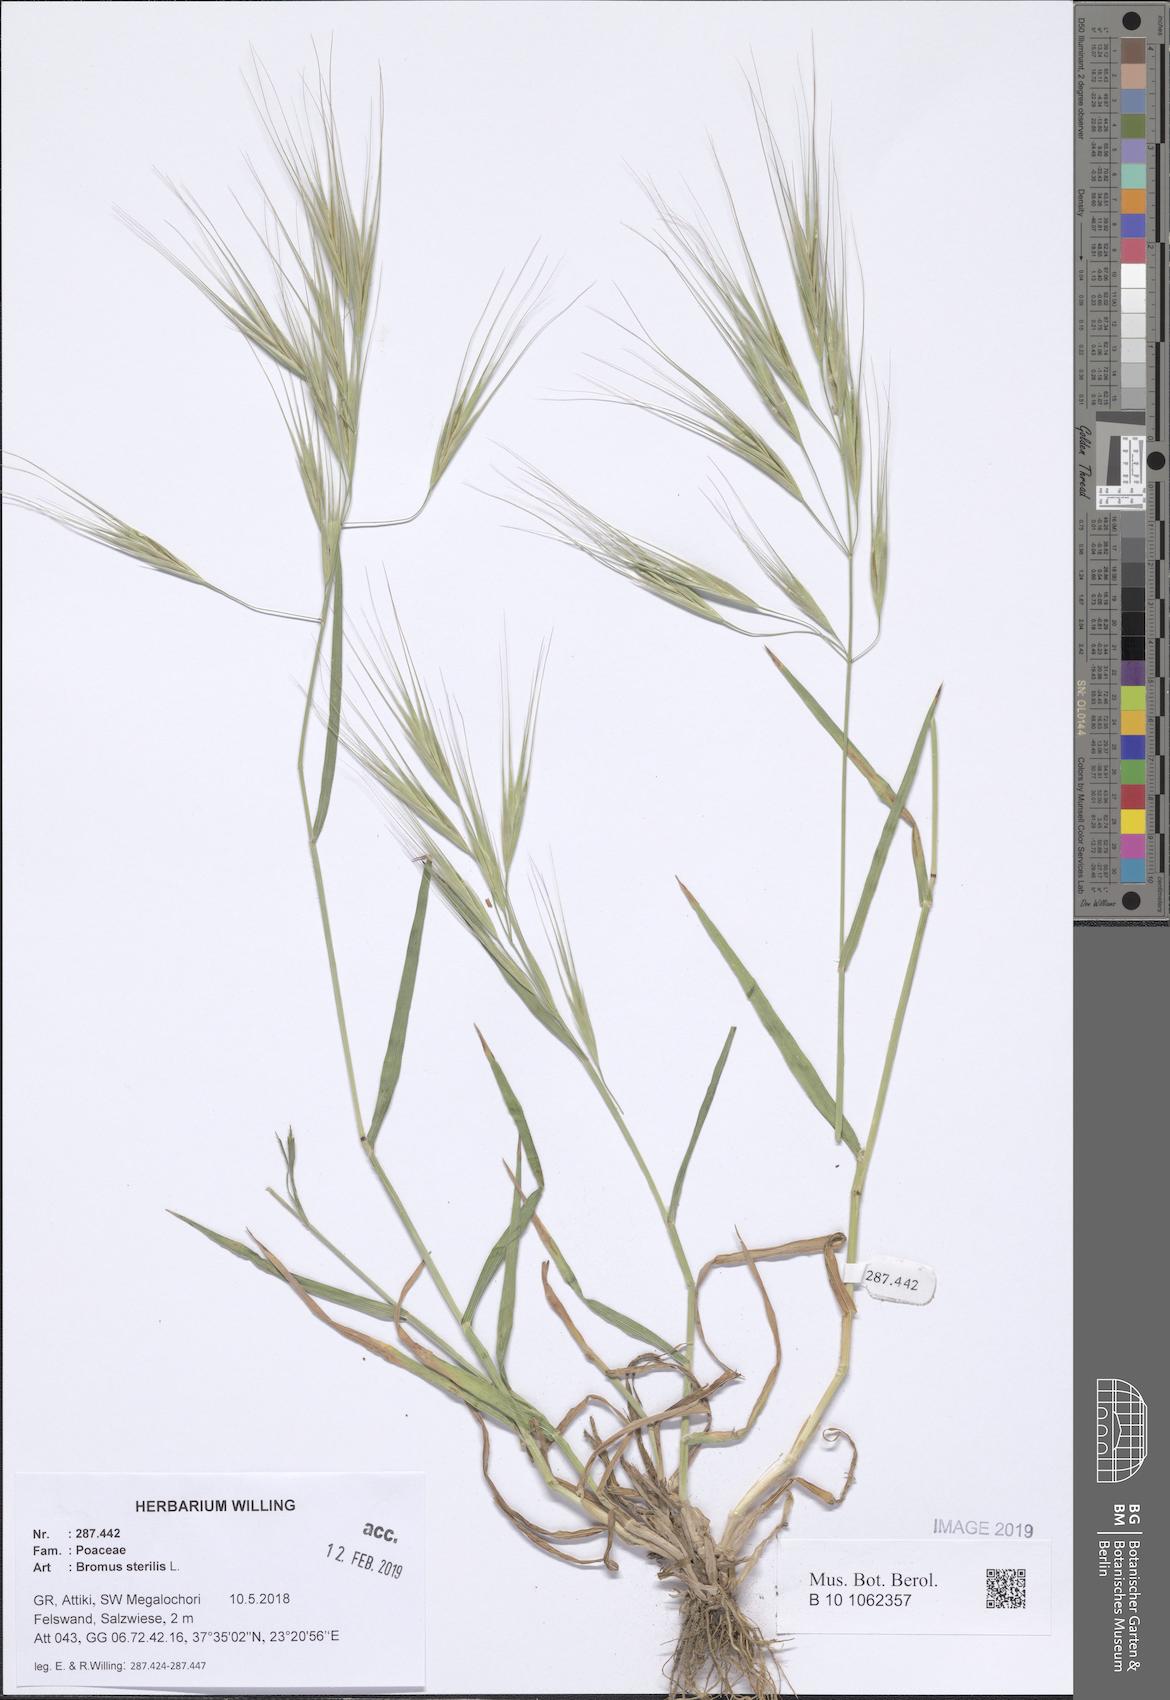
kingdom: Plantae
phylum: Tracheophyta
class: Liliopsida
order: Poales
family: Poaceae
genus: Bromus
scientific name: Bromus sterilis
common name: Poverty brome
